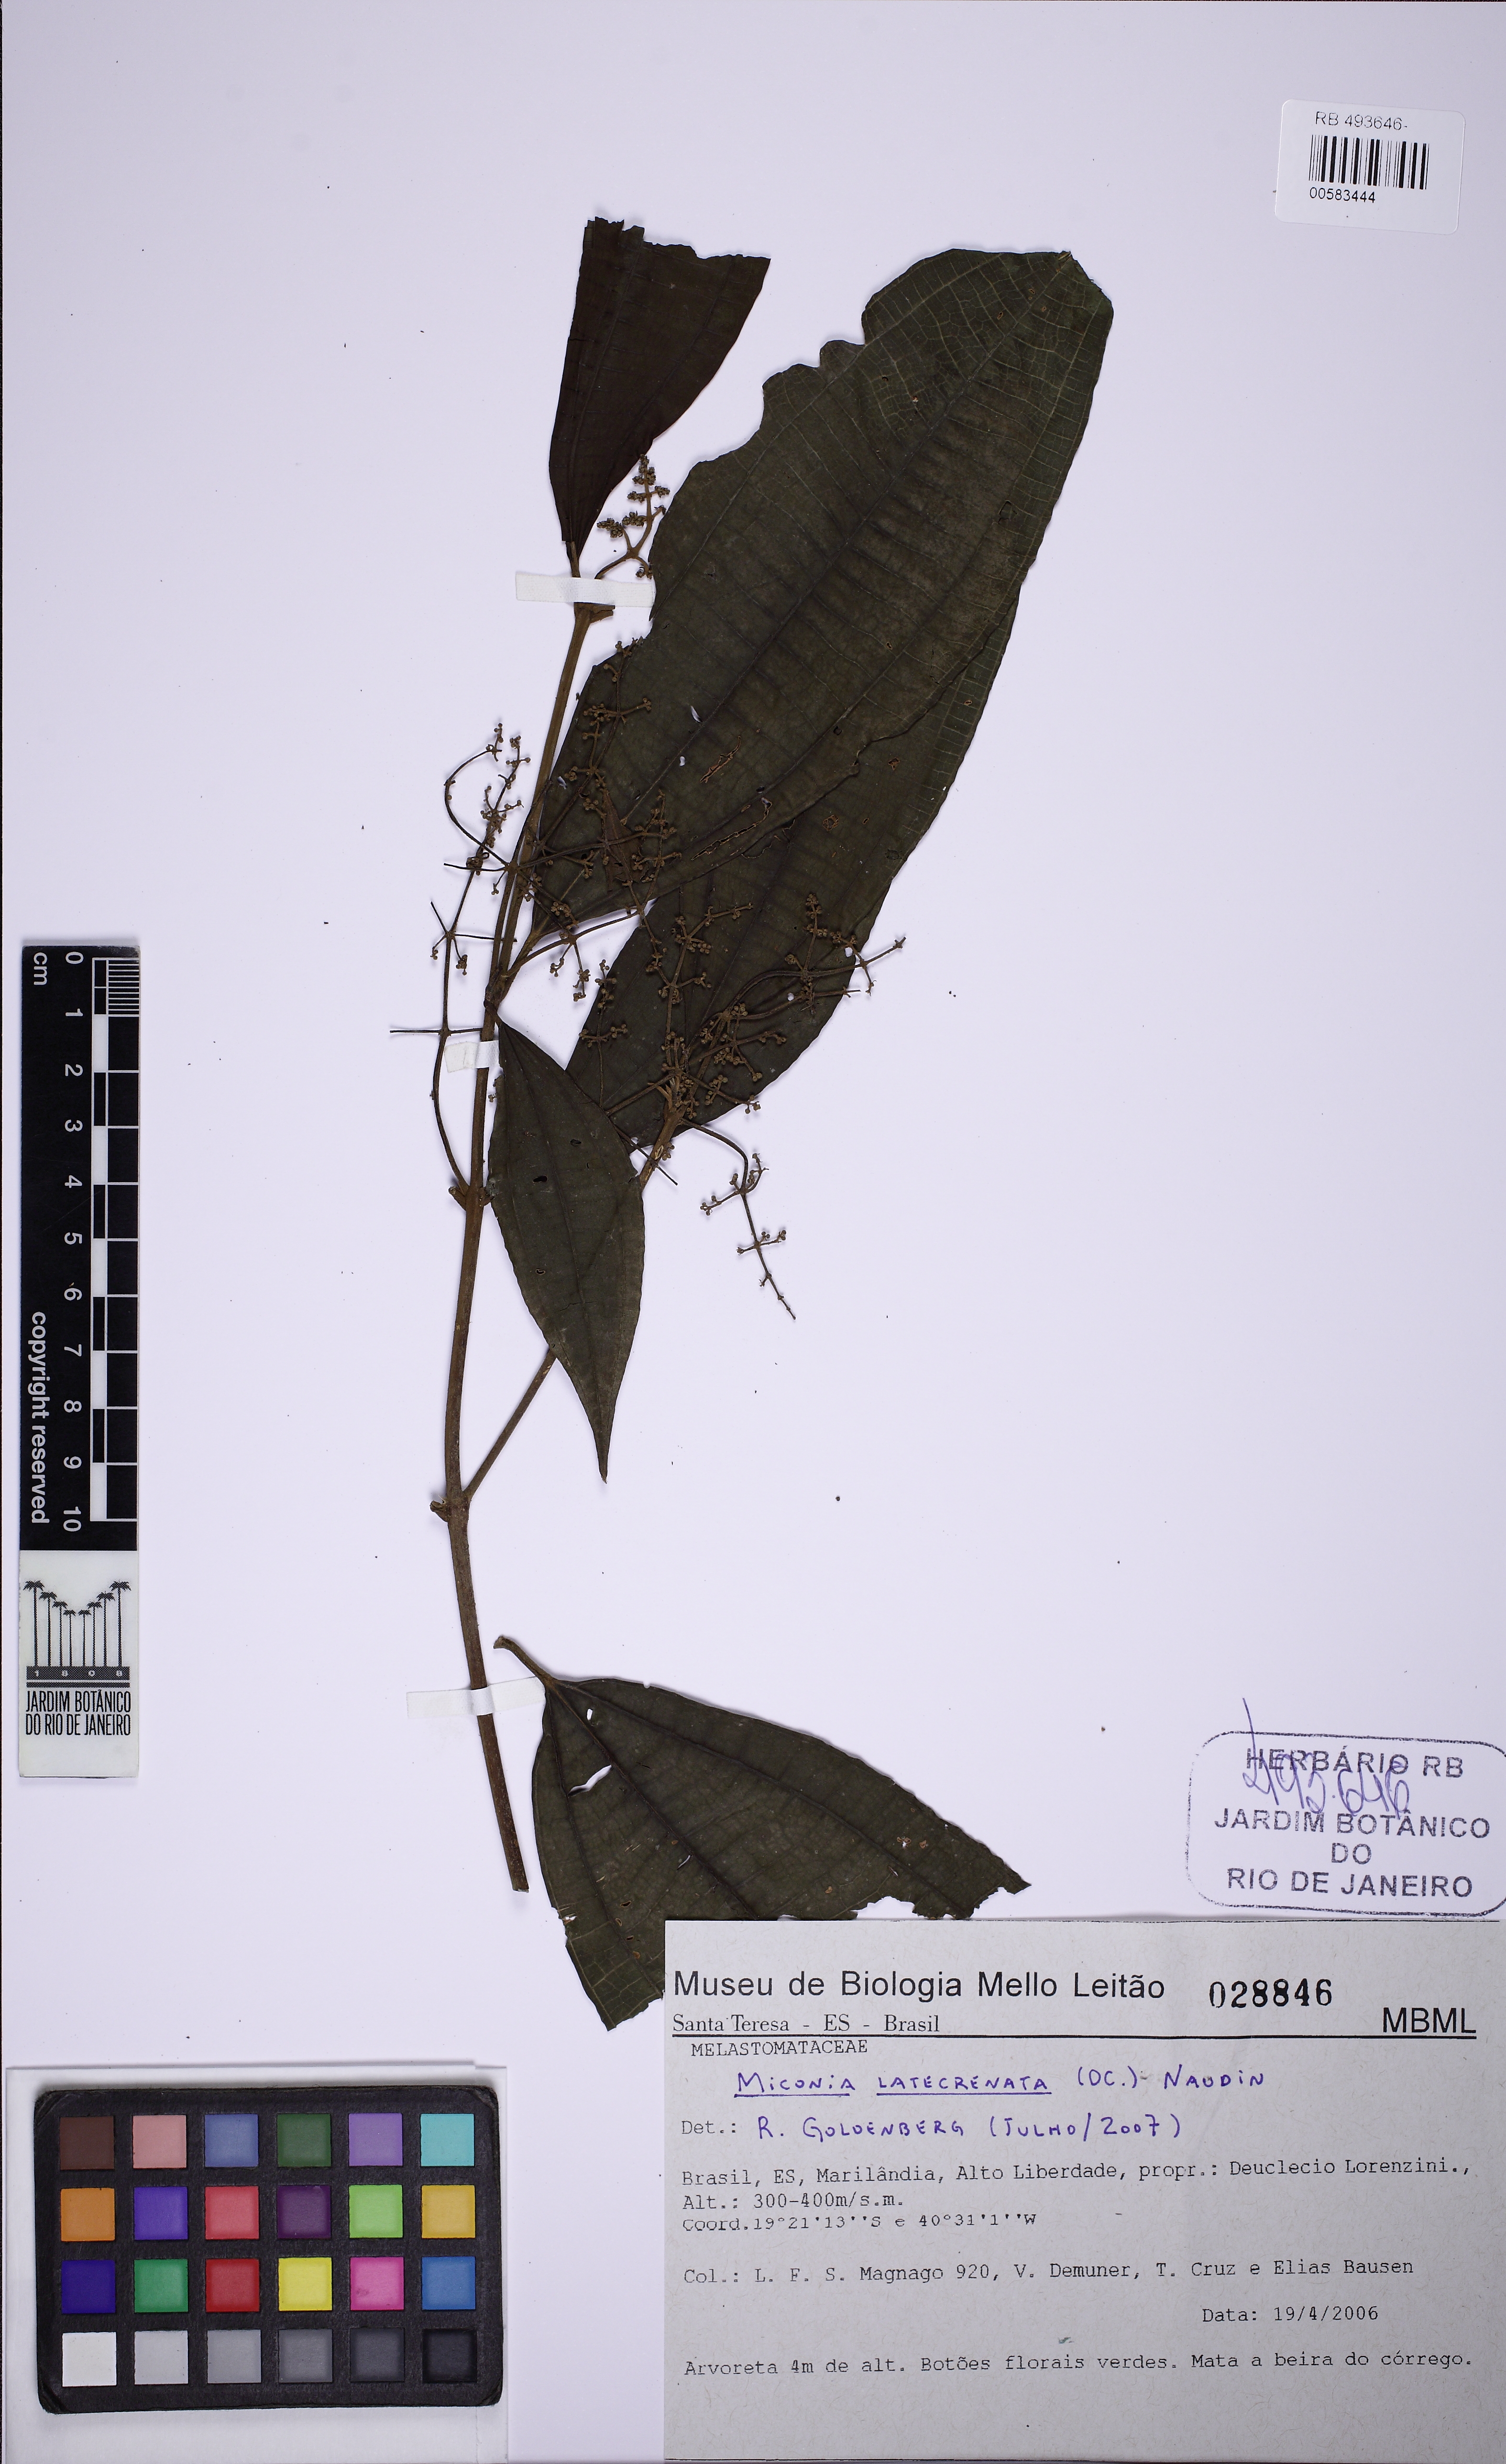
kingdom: Plantae
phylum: Tracheophyta
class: Magnoliopsida
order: Myrtales
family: Melastomataceae
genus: Miconia
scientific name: Miconia latecrenata
